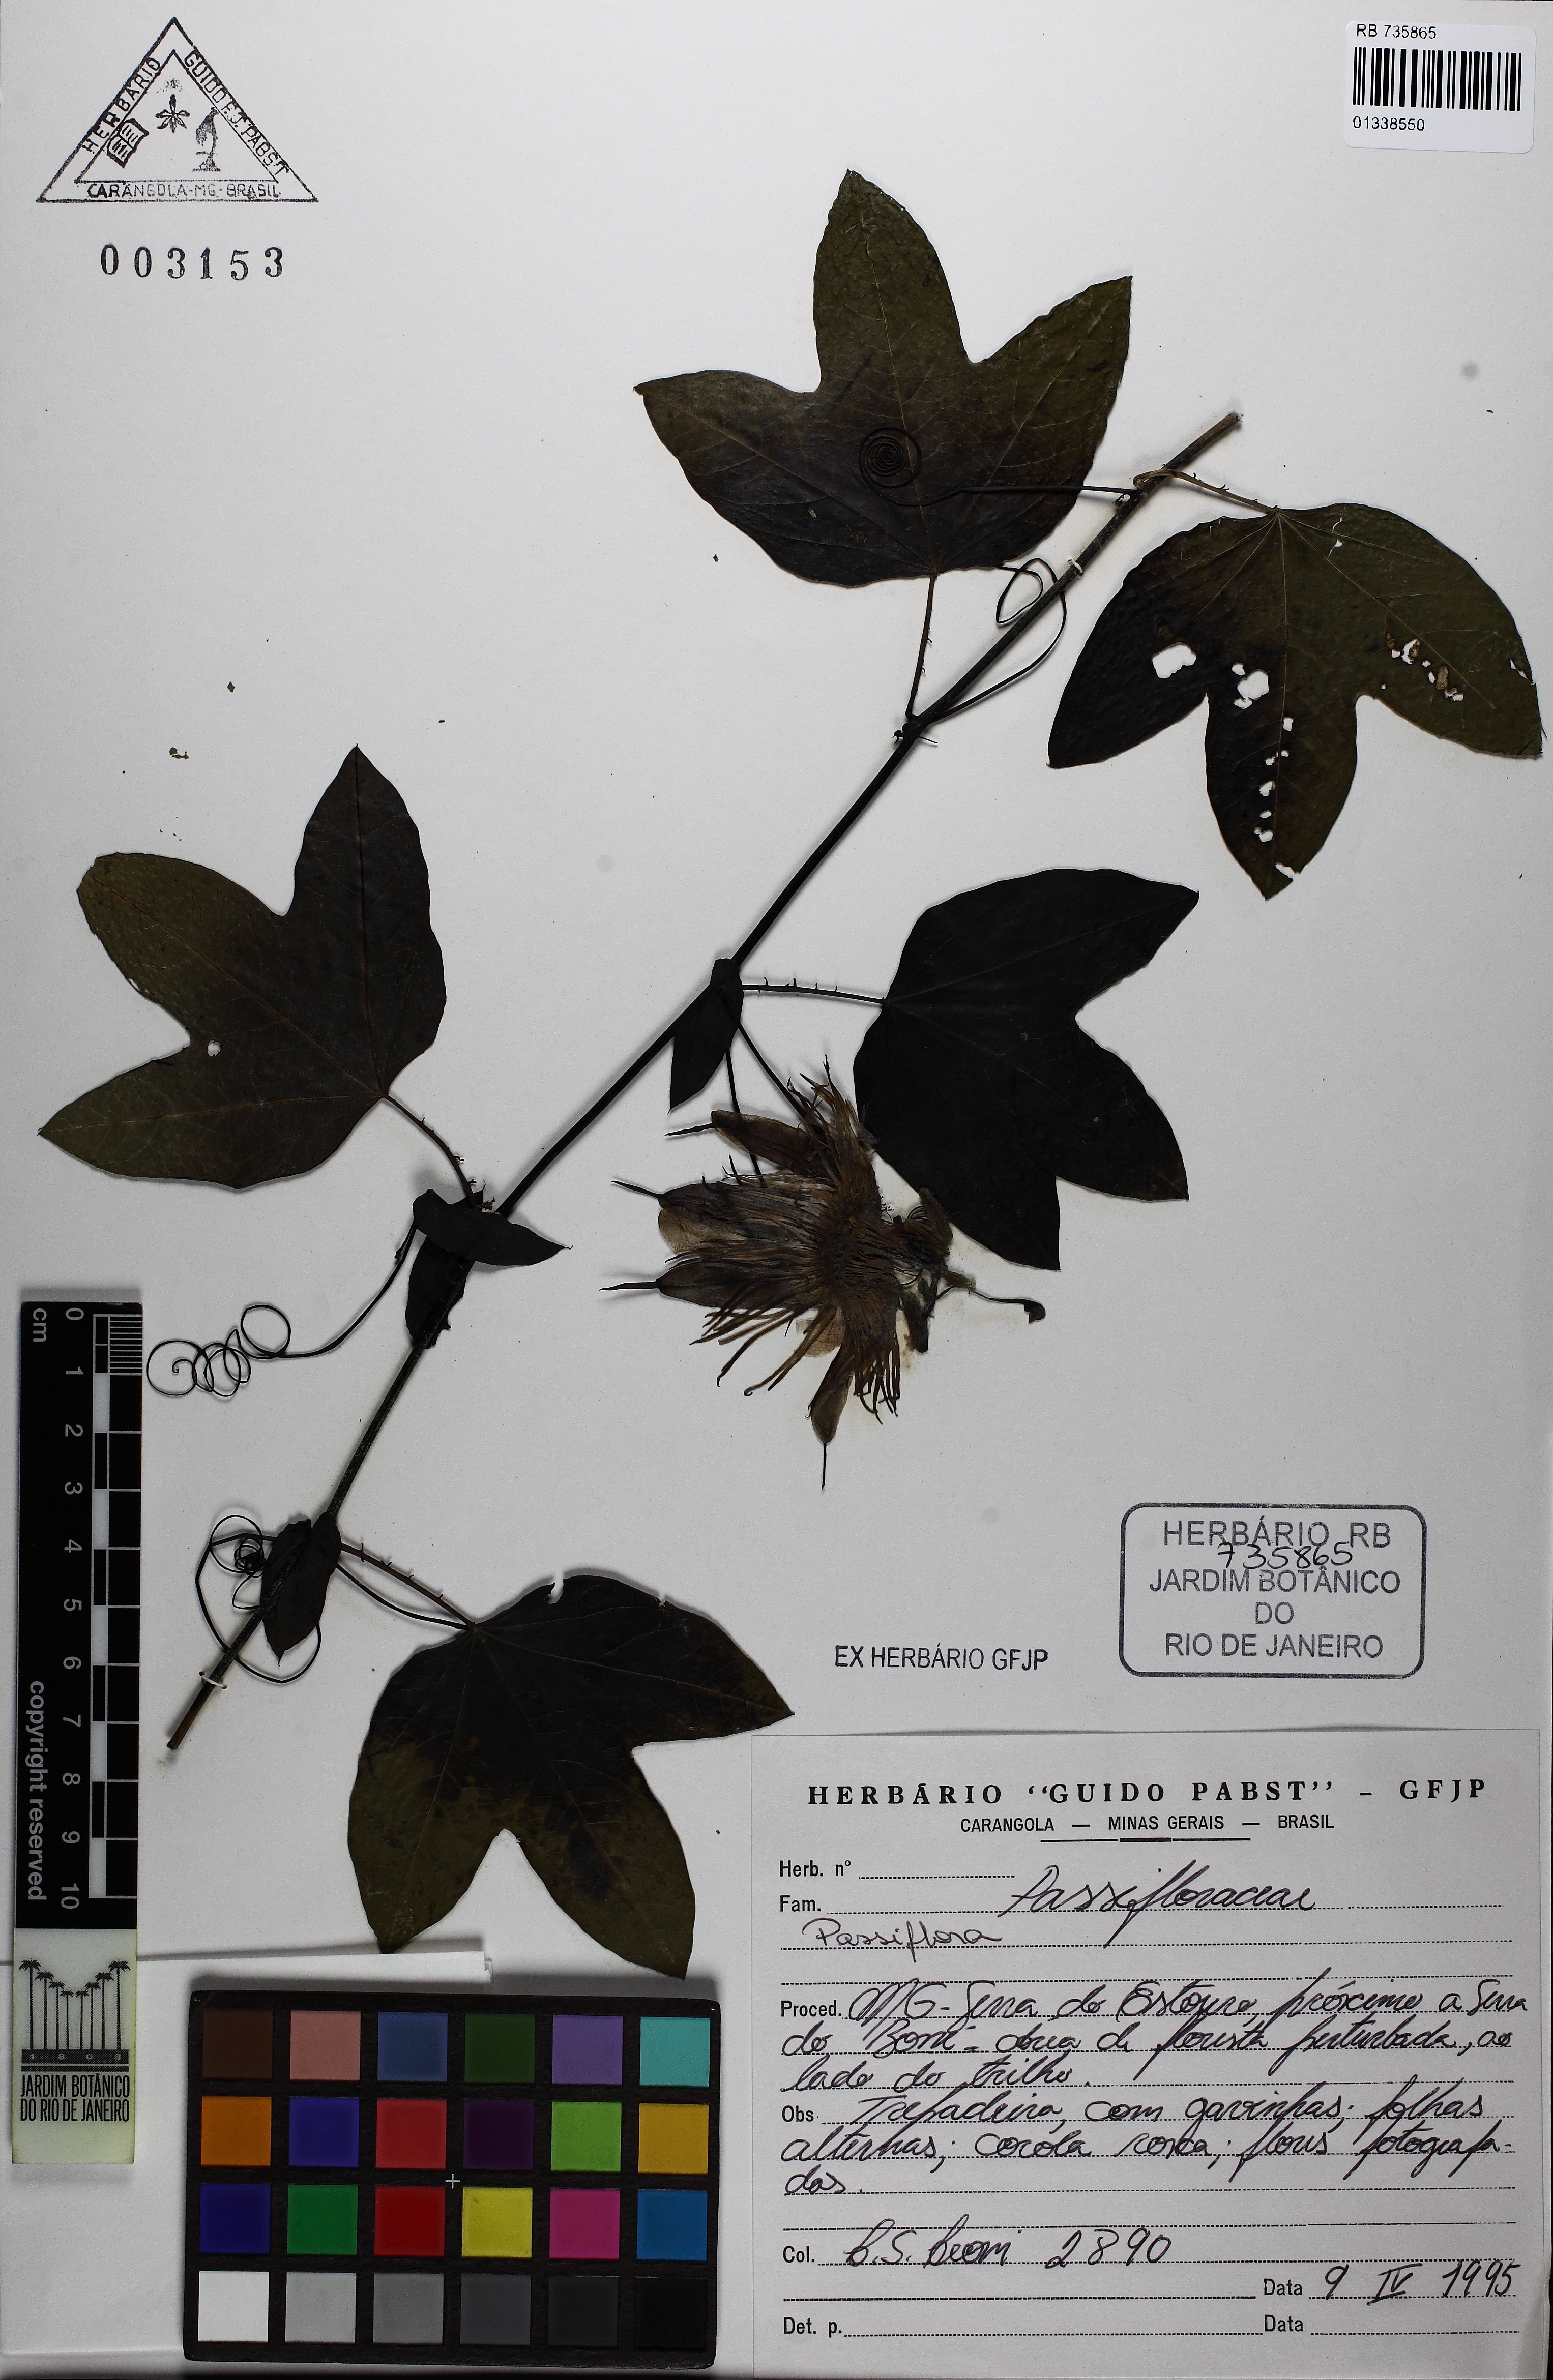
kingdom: Plantae
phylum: Tracheophyta
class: Magnoliopsida
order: Malpighiales
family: Passifloraceae
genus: Passiflora
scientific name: Passiflora
